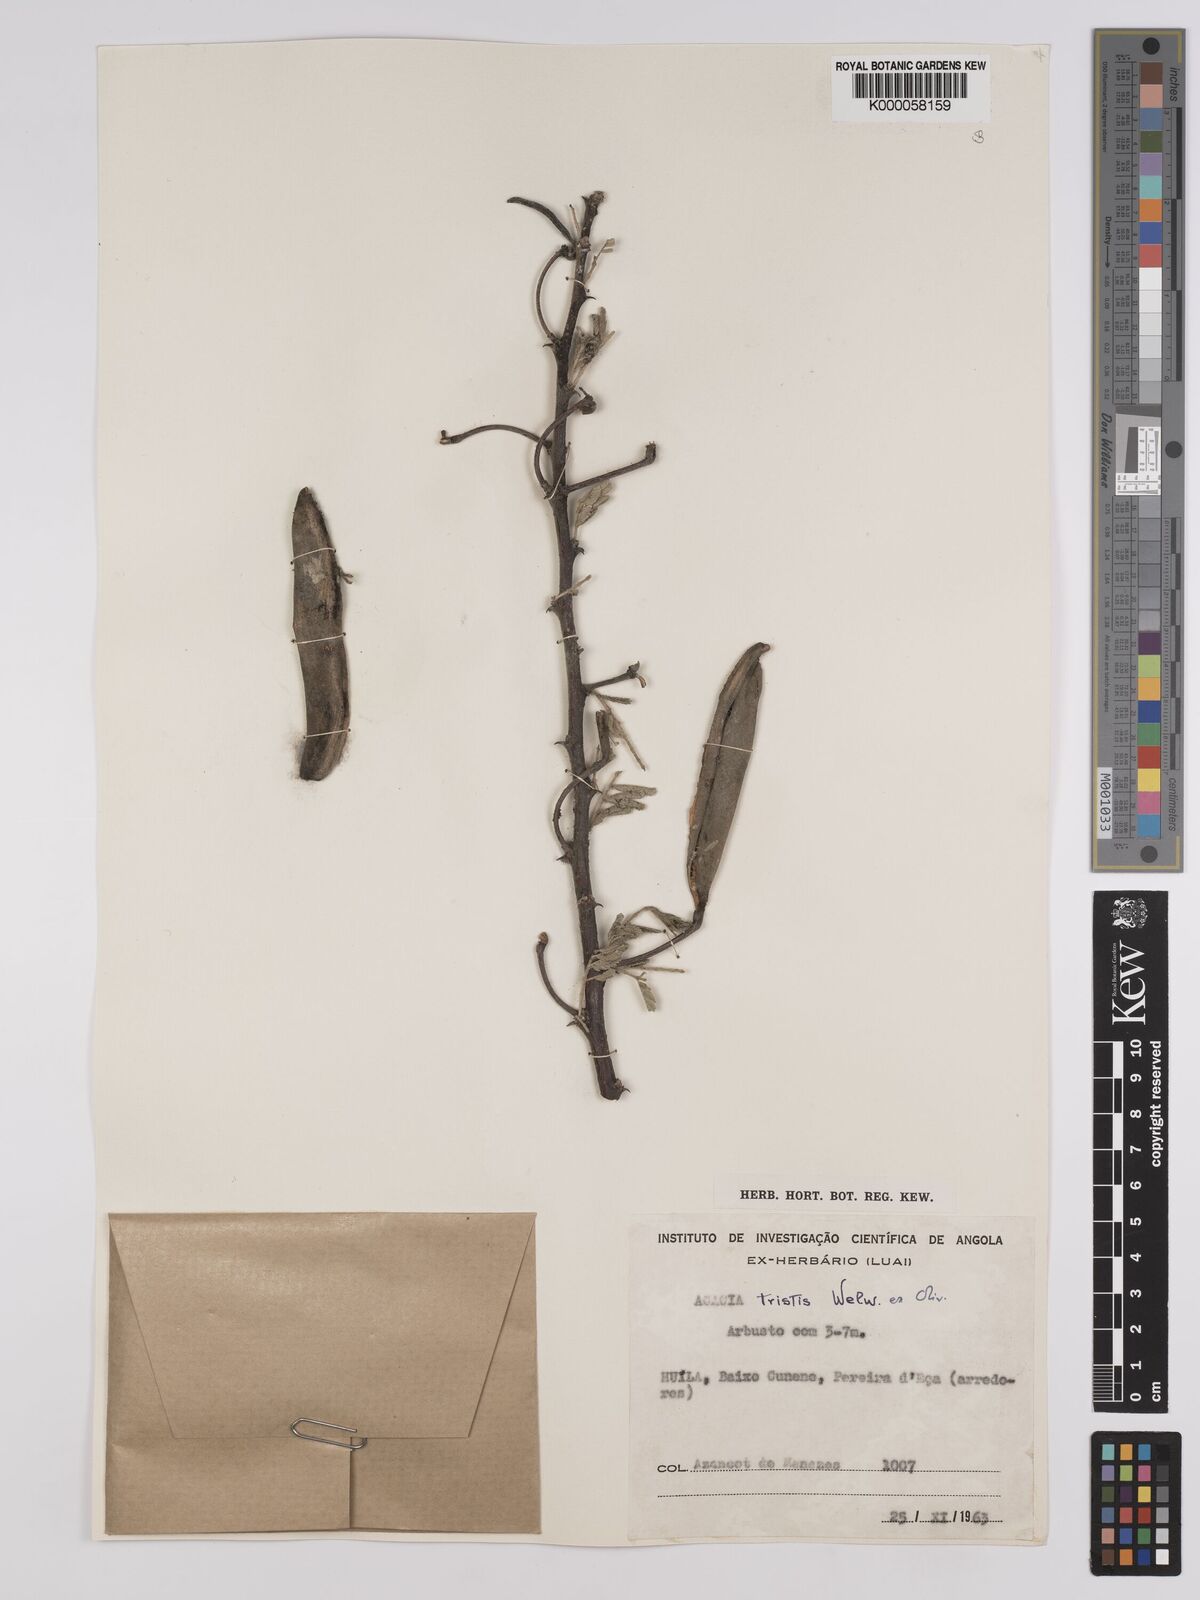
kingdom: Plantae
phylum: Tracheophyta
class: Magnoliopsida
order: Fabales
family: Fabaceae
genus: Vachellia
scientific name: Vachellia hebeclada
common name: Candle thorn
